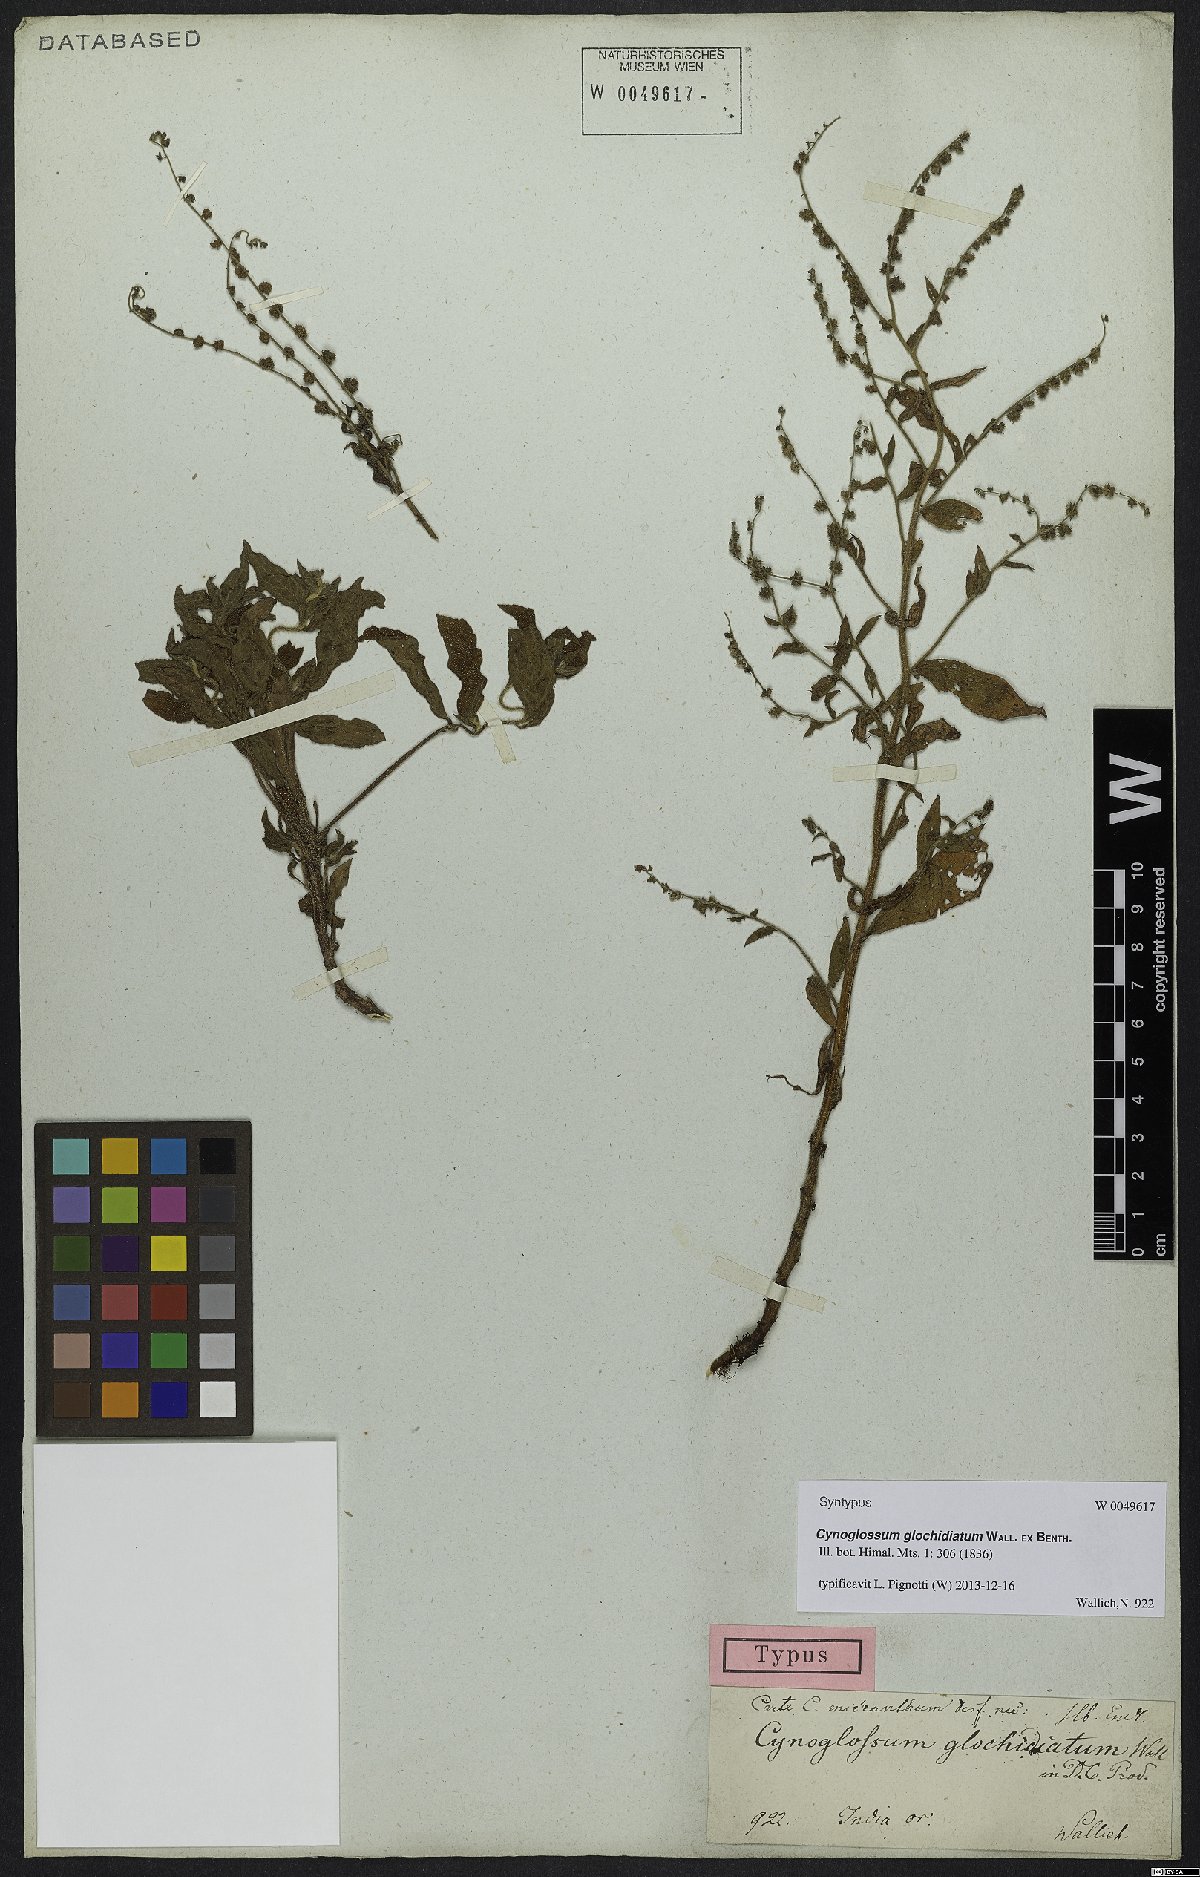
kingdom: Plantae
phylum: Tracheophyta
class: Magnoliopsida
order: Boraginales
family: Boraginaceae
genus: Paracynoglossum
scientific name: Paracynoglossum glochidiatum
